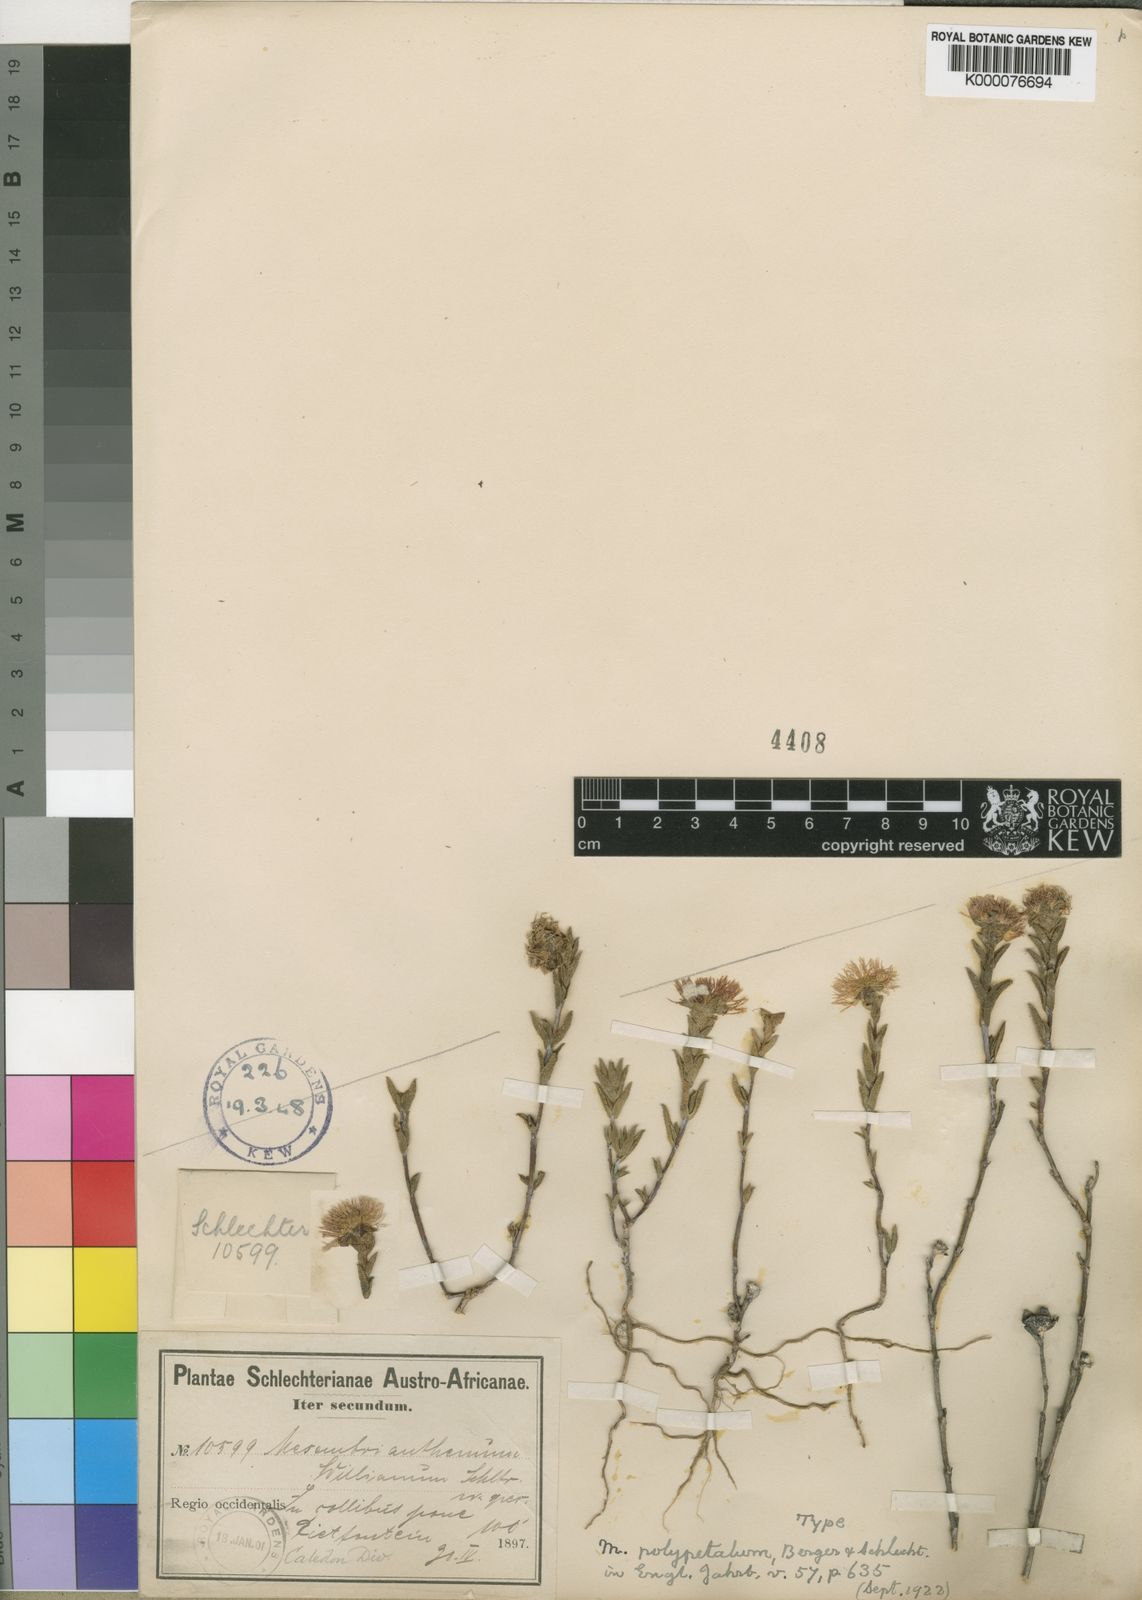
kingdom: Plantae
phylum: Tracheophyta
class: Magnoliopsida
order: Caryophyllales
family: Aizoaceae
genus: Erepsia
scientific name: Erepsia polypetala
